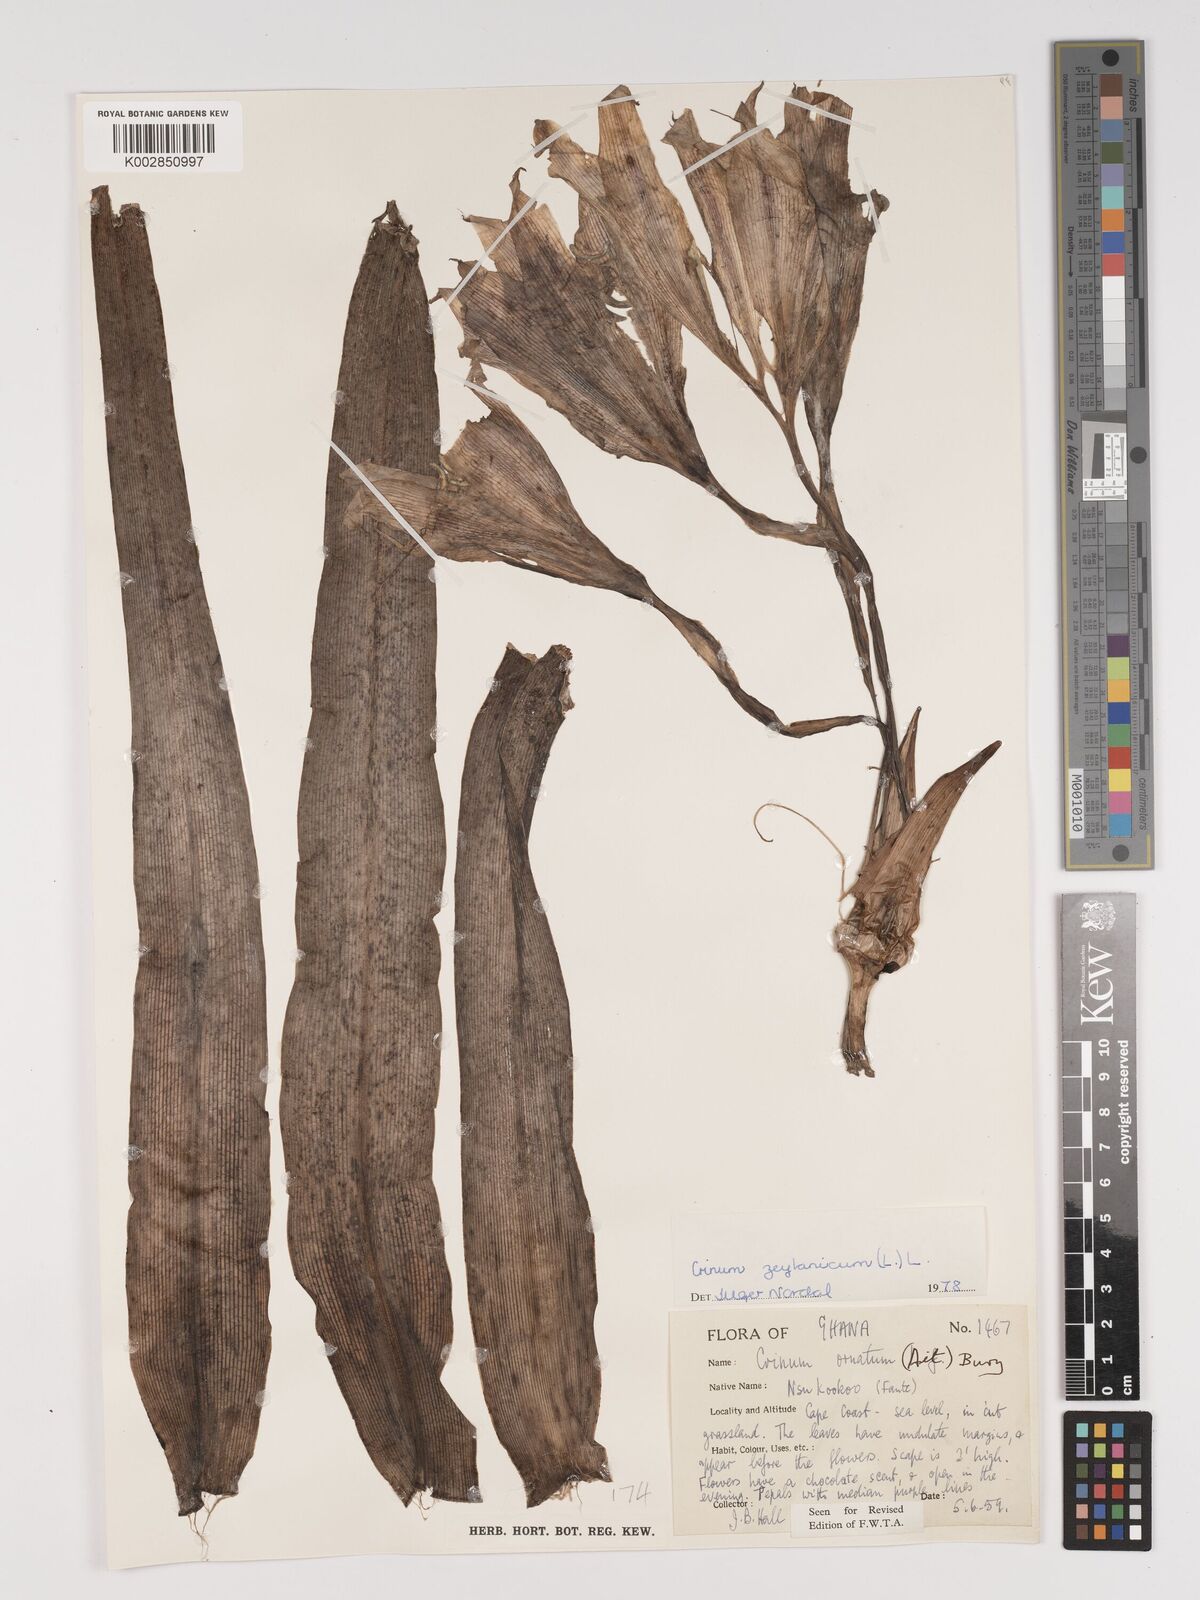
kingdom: Plantae
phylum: Tracheophyta
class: Liliopsida
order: Asparagales
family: Amaryllidaceae
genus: Crinum
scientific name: Crinum ornatum
